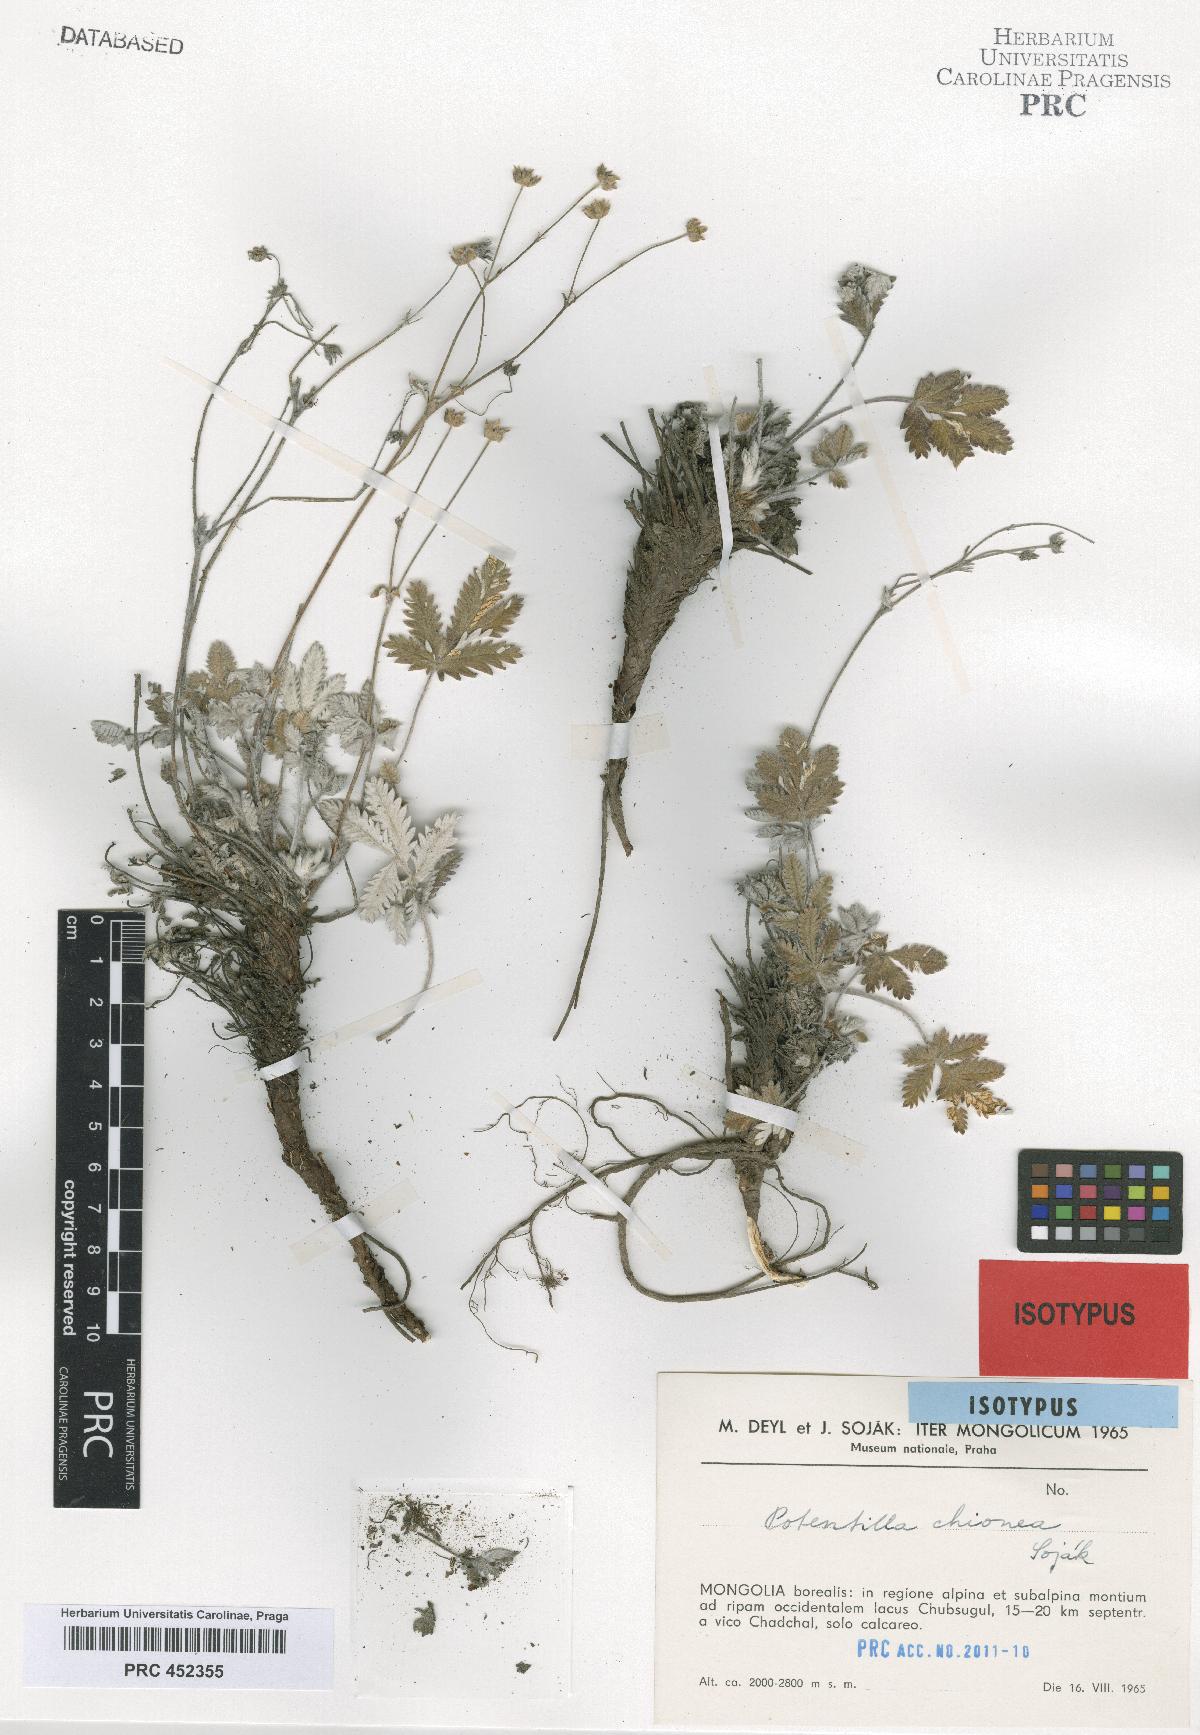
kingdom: Plantae
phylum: Tracheophyta
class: Magnoliopsida
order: Rosales
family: Rosaceae
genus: Potentilla
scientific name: Potentilla chionea
